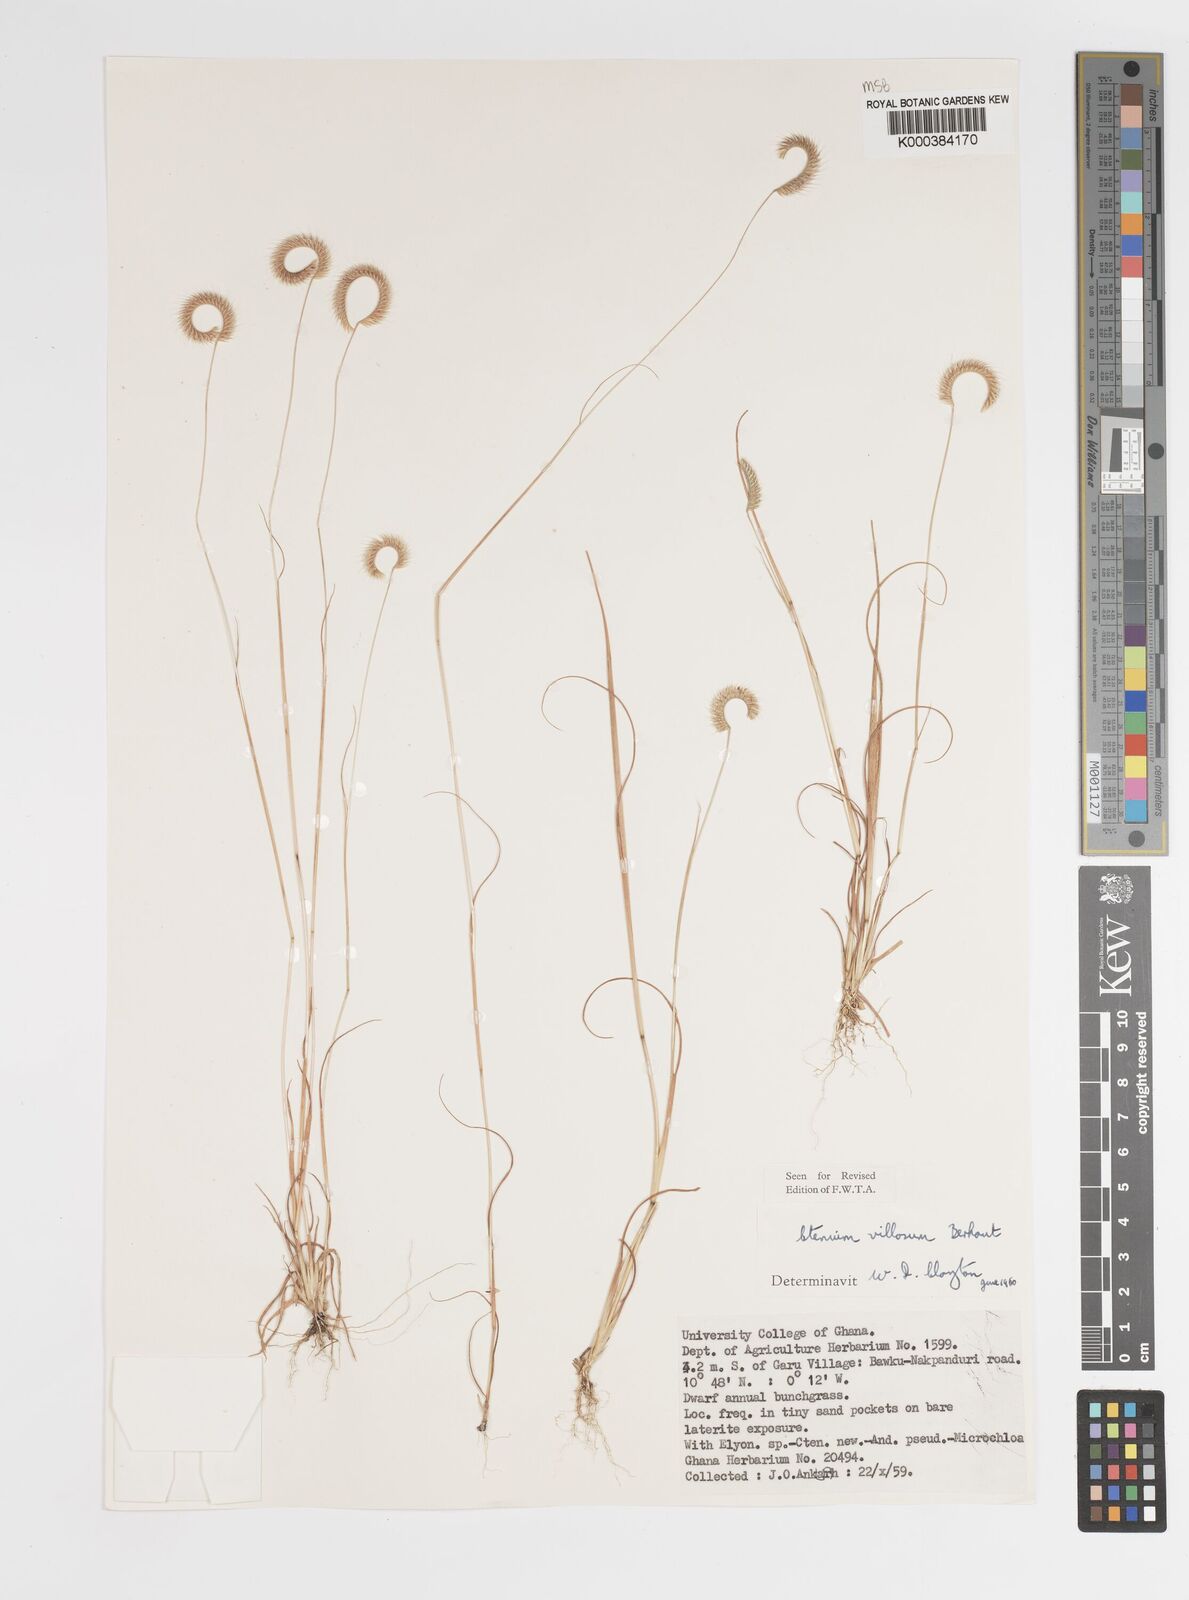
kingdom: Plantae
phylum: Tracheophyta
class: Liliopsida
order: Poales
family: Poaceae
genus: Ctenium
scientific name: Ctenium villosum
